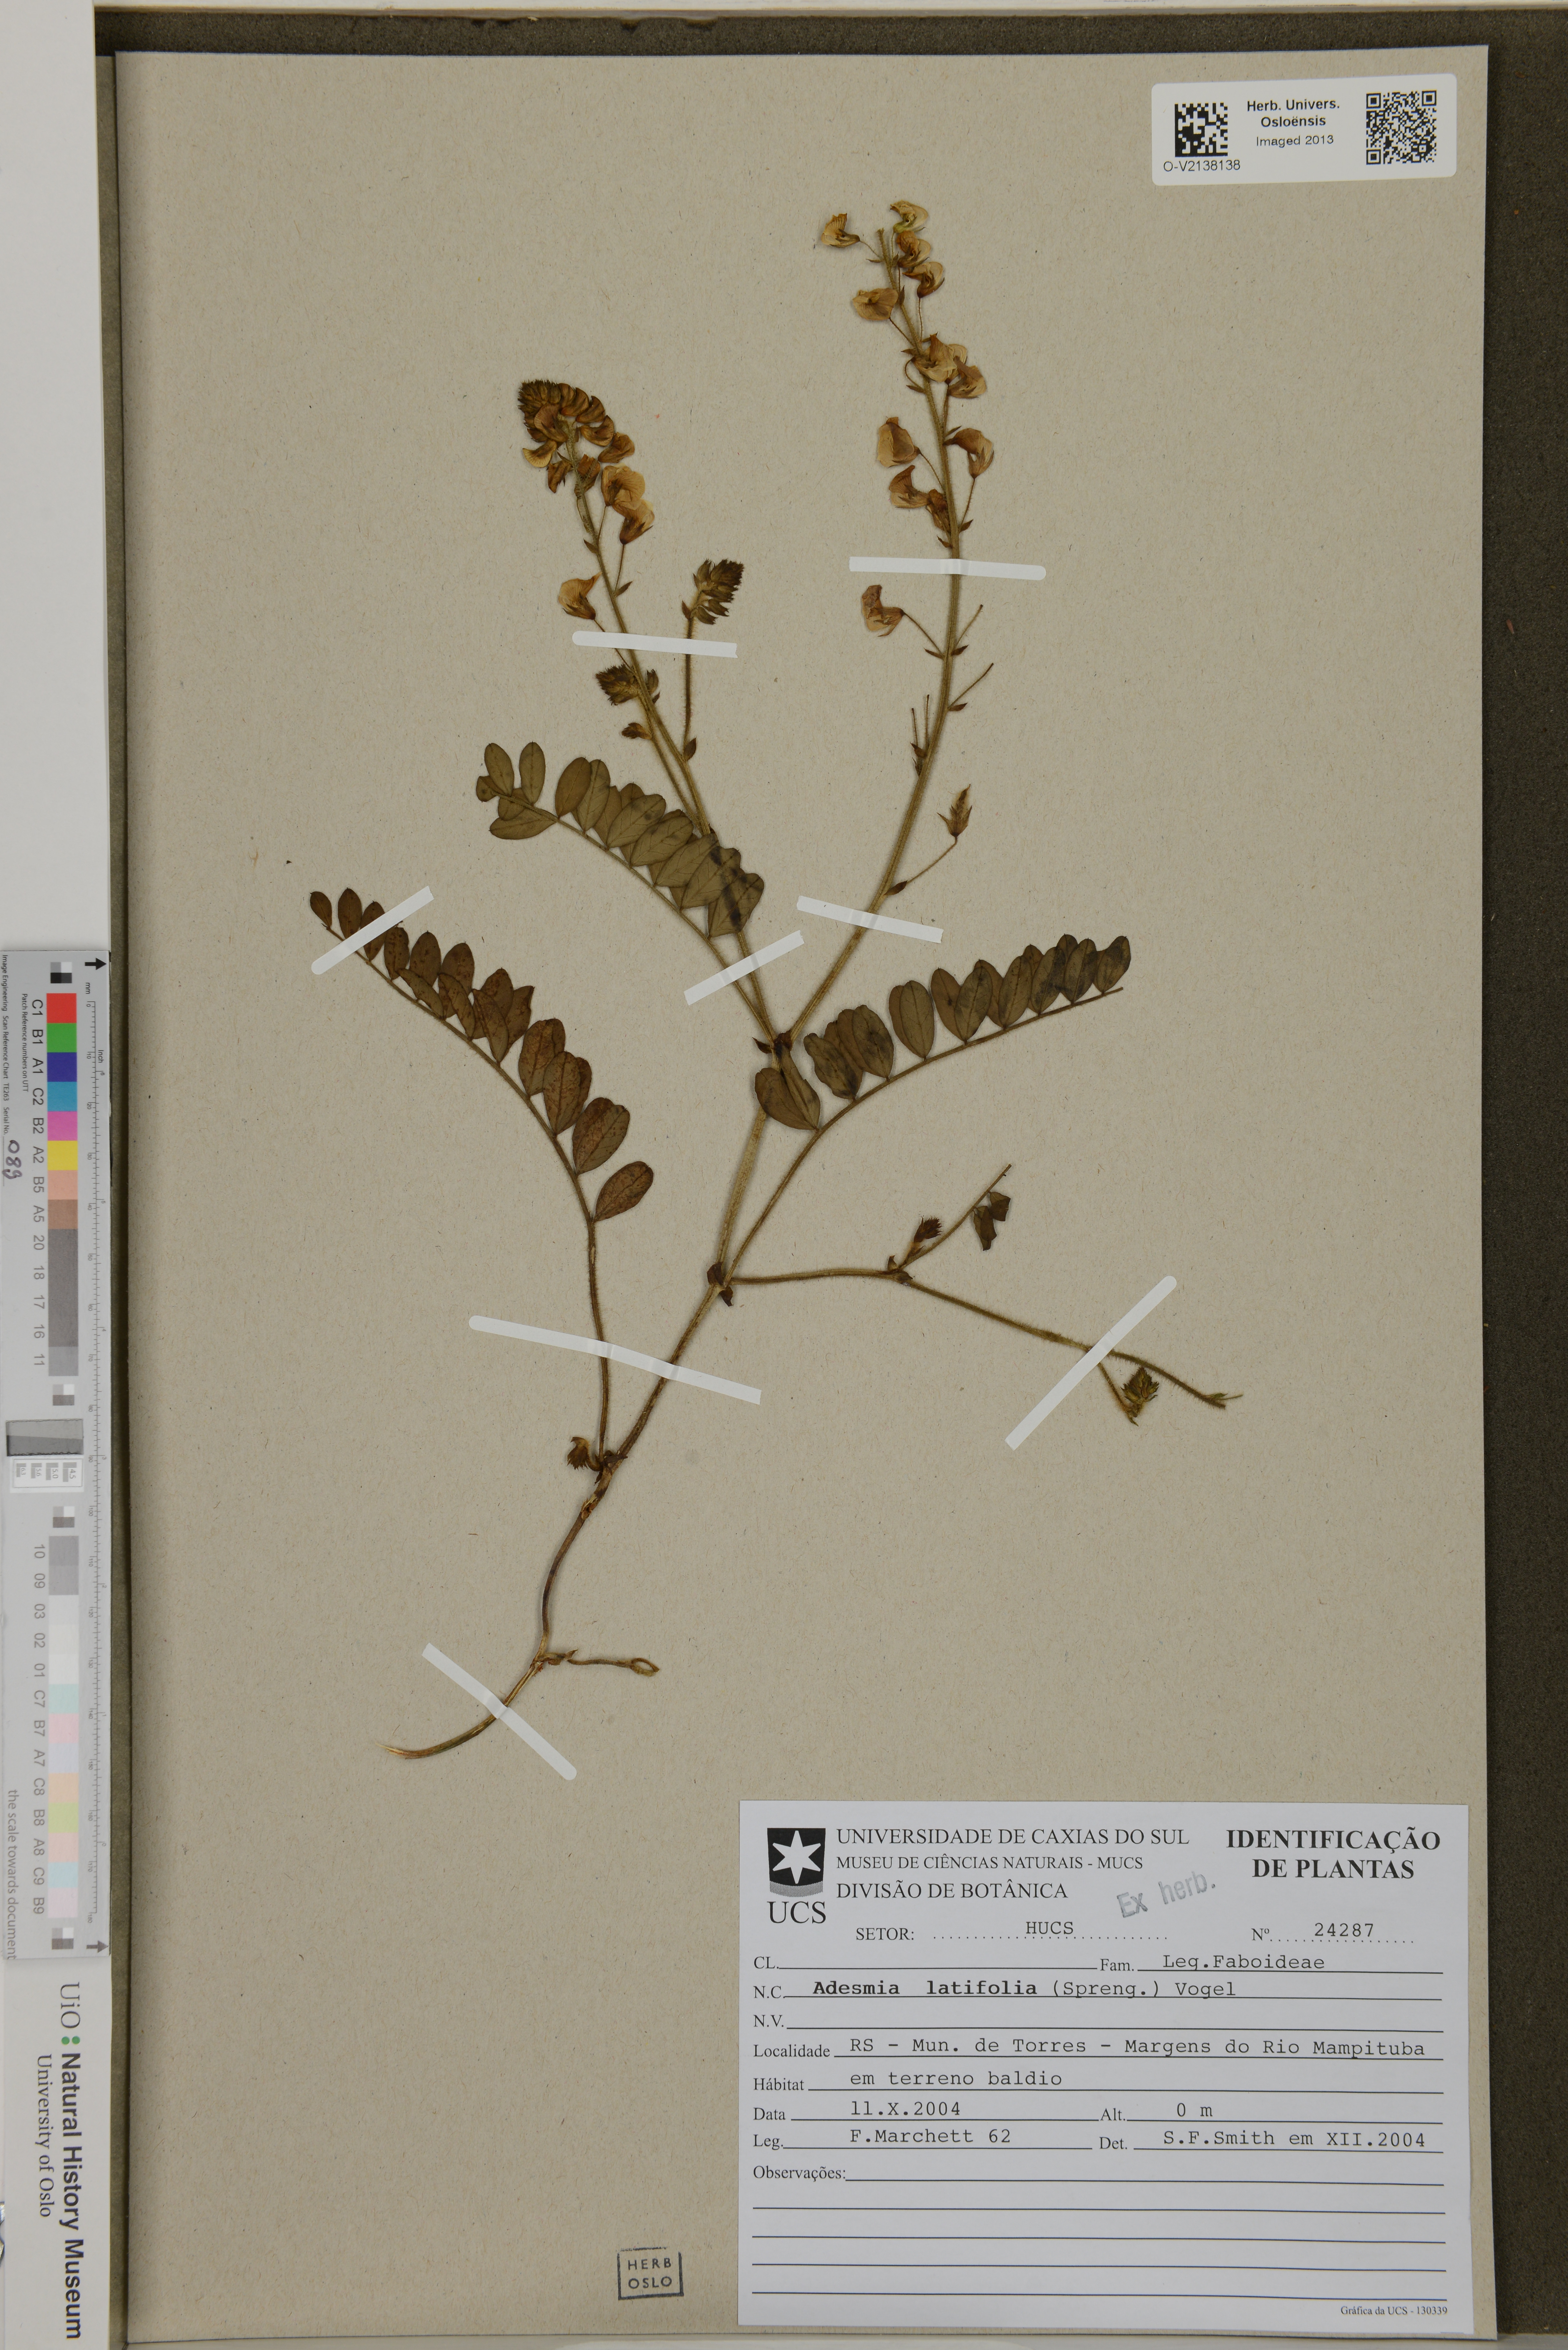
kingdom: Plantae
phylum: Tracheophyta
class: Magnoliopsida
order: Fabales
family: Fabaceae
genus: Adesmia
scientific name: Adesmia latifolia
